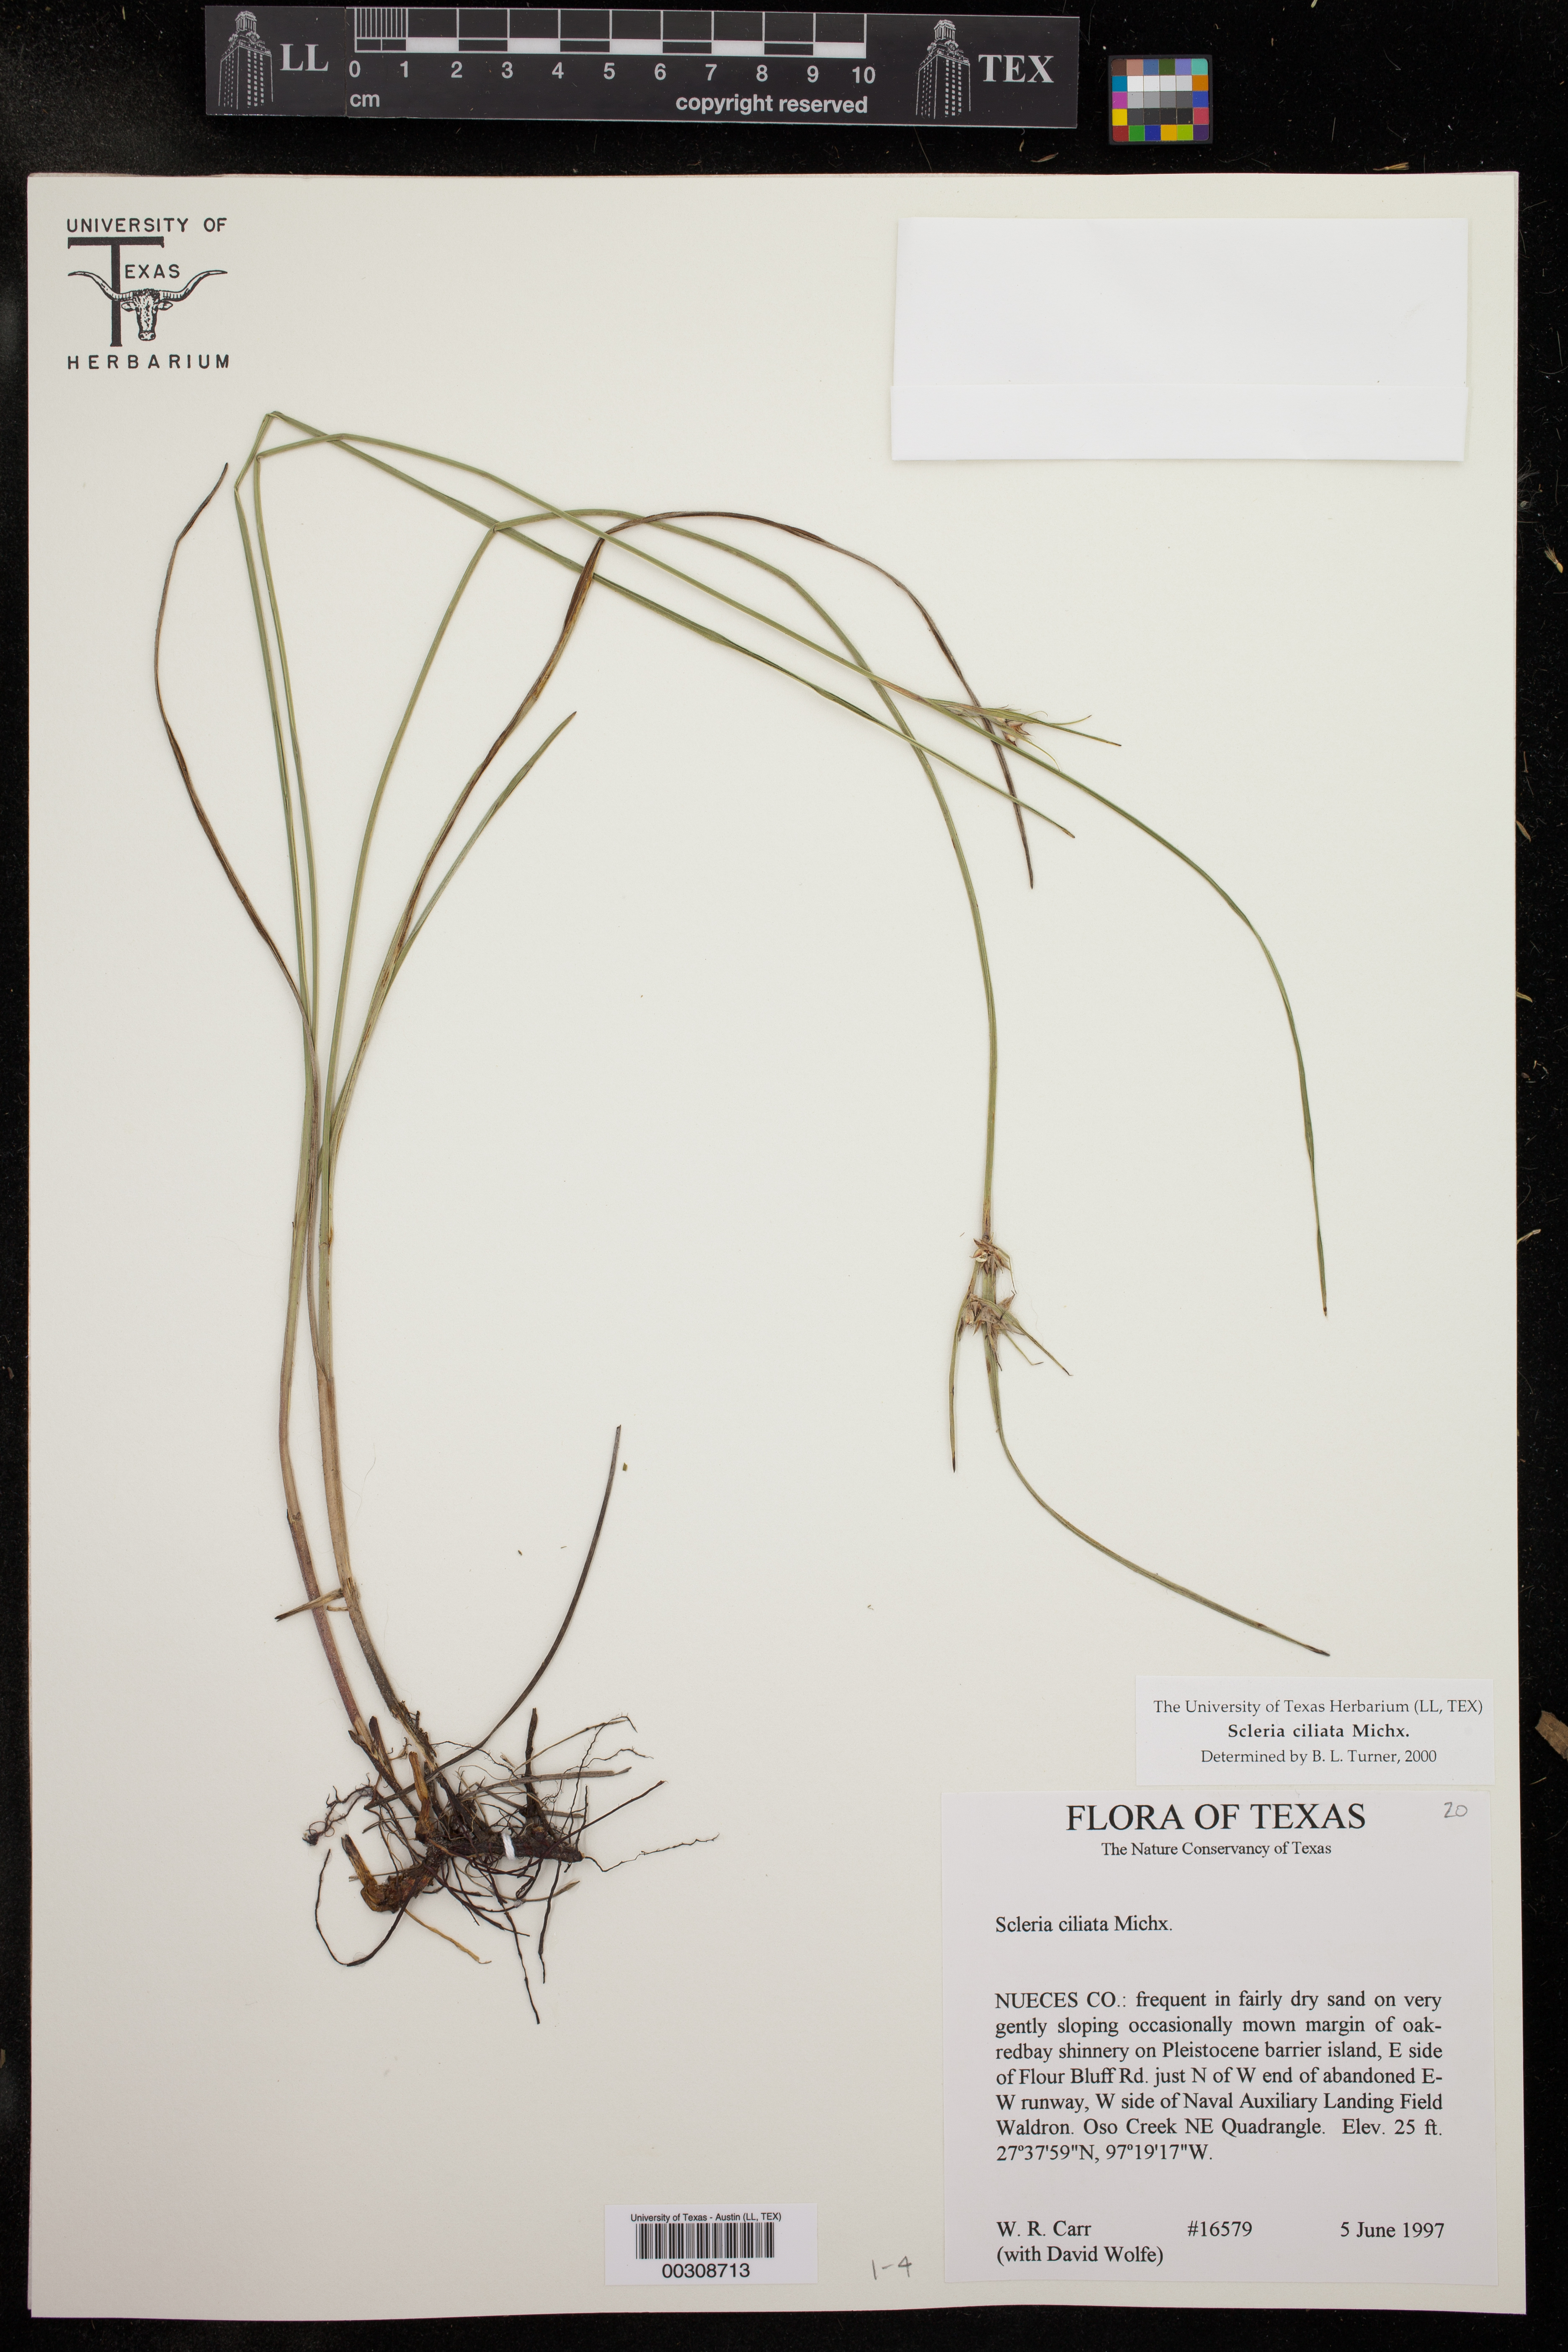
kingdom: Plantae
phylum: Tracheophyta
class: Liliopsida
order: Poales
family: Cyperaceae
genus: Scleria
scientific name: Scleria ciliata
